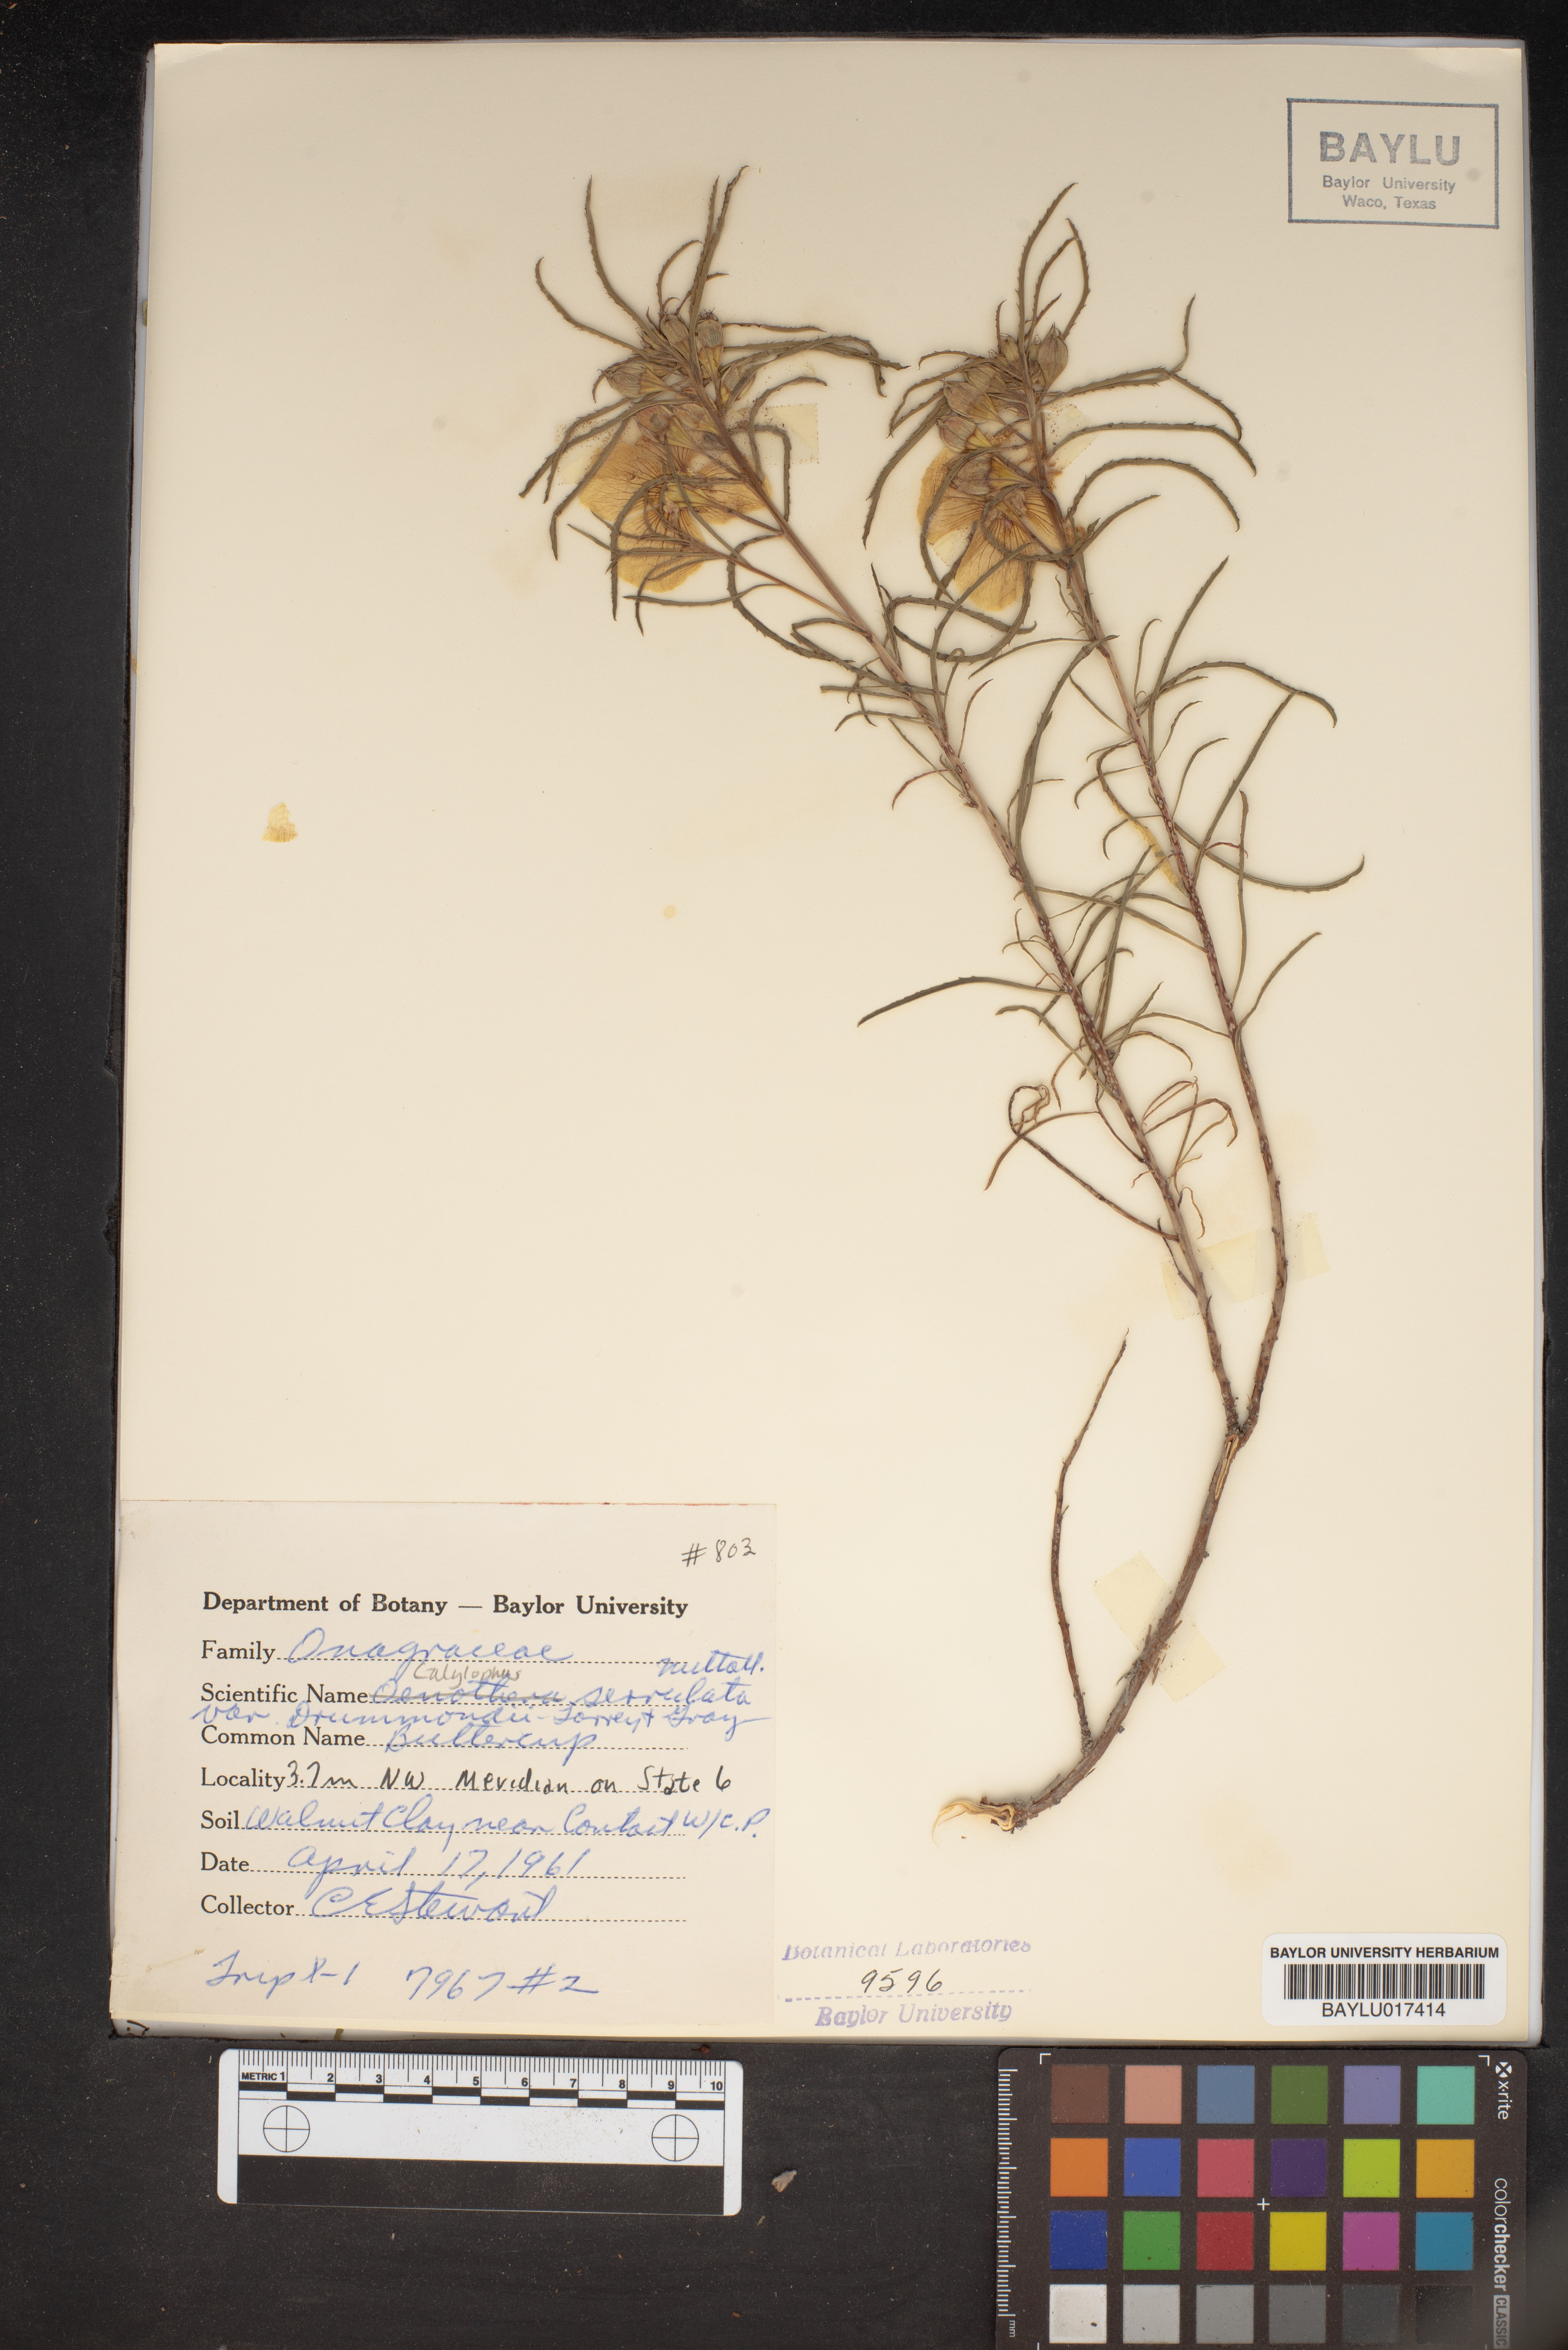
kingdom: Plantae
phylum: Tracheophyta
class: Magnoliopsida
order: Myrtales
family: Onagraceae
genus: Oenothera
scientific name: Oenothera serrulata
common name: Half-shrub calylophus
